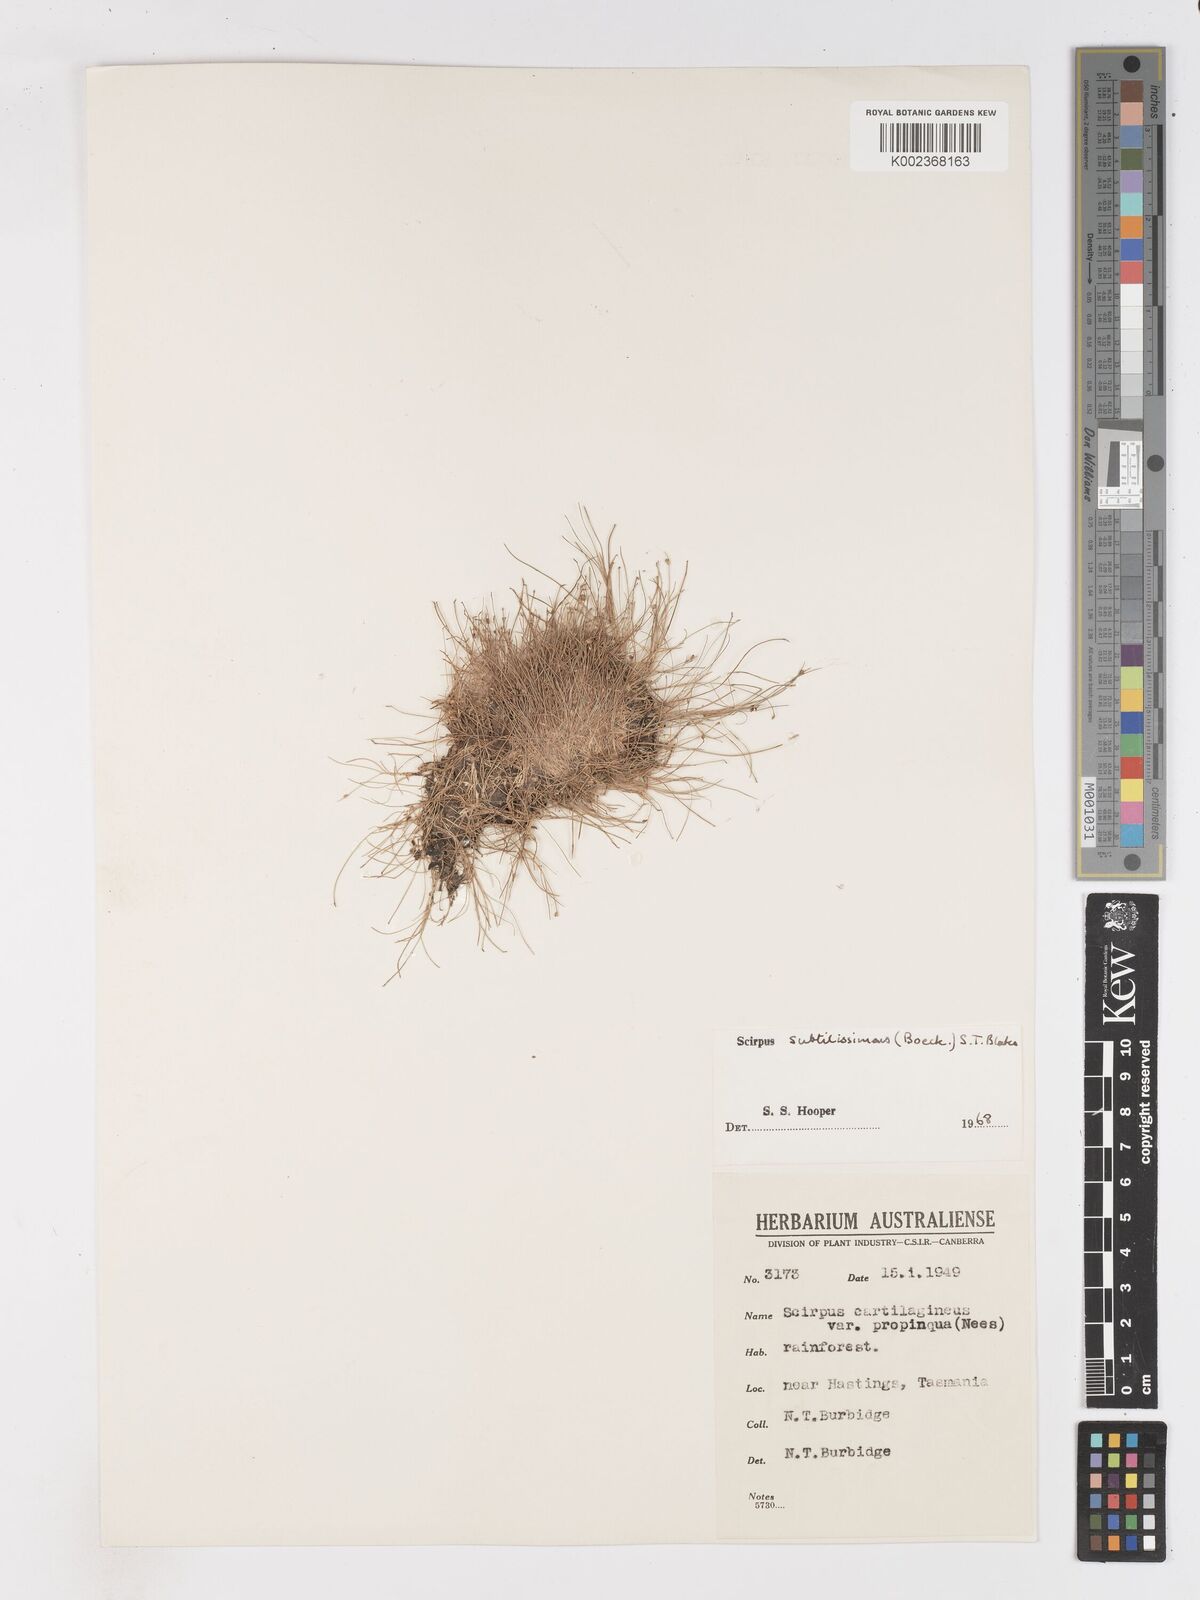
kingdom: Plantae
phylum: Tracheophyta
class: Liliopsida
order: Poales
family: Cyperaceae
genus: Isolepis
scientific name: Isolepis subtilissima
